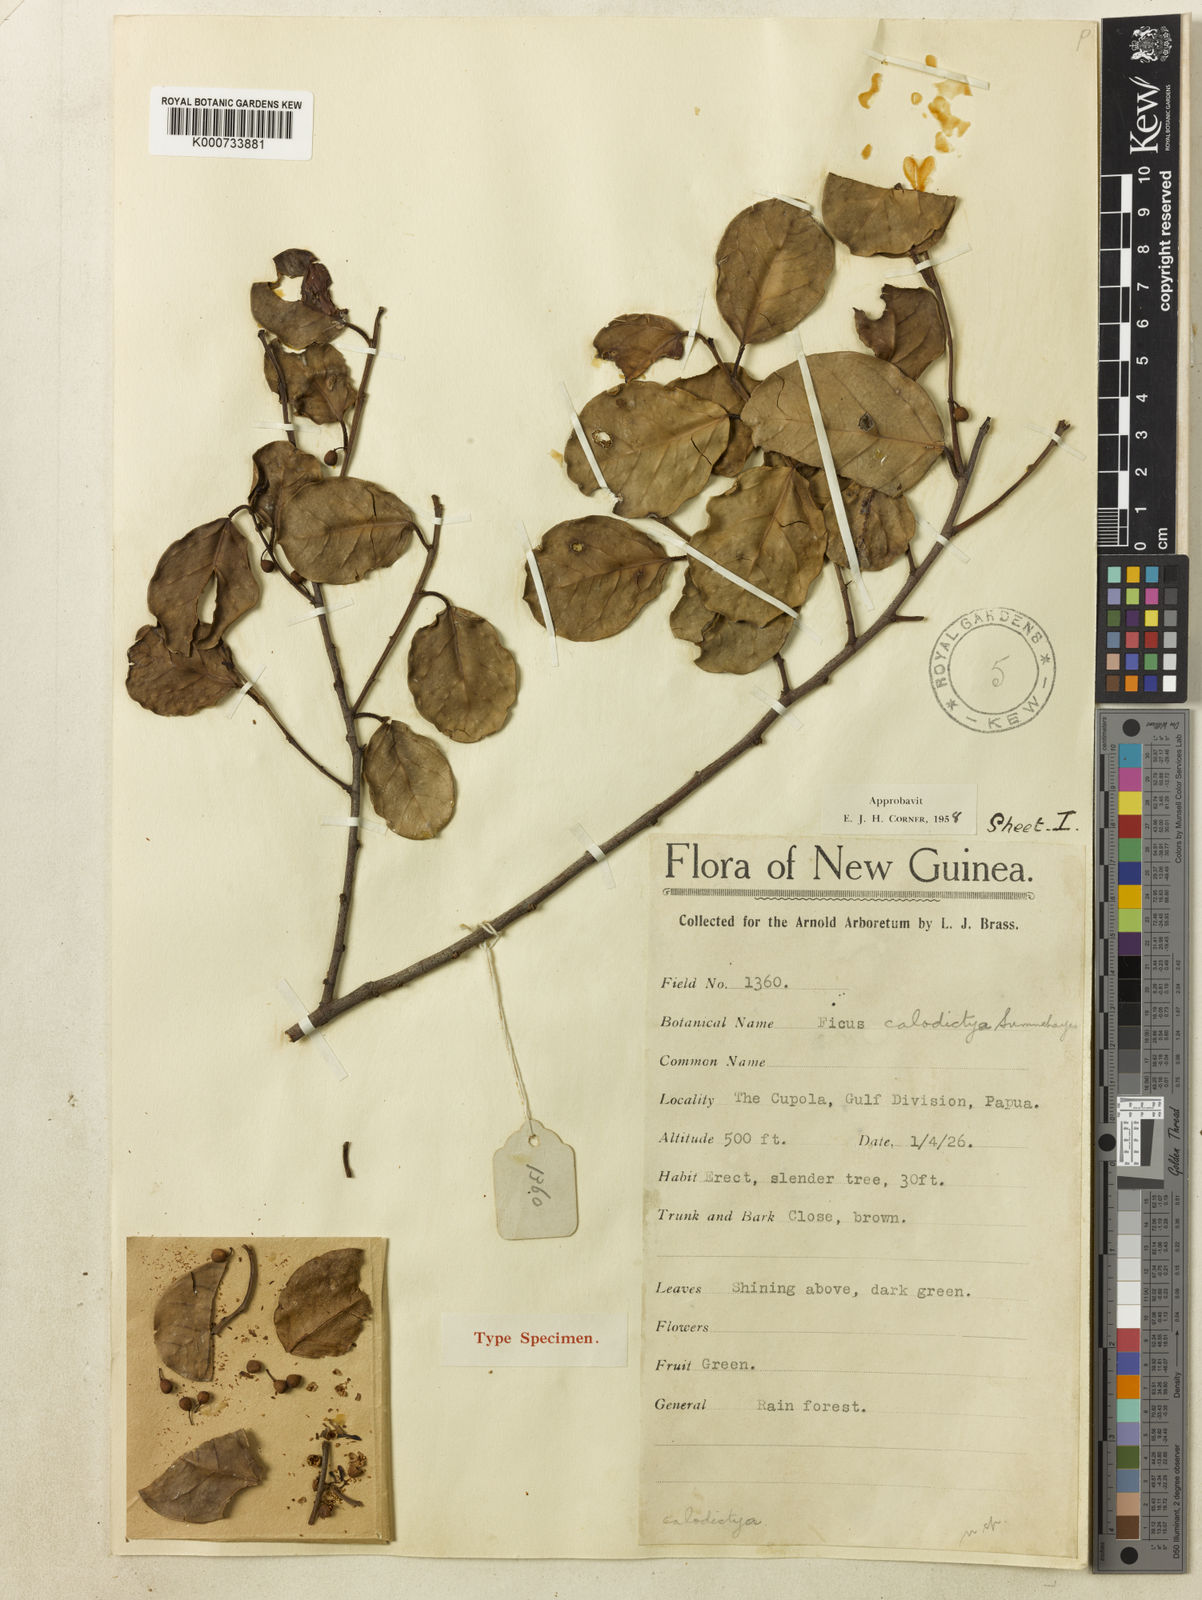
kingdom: Plantae
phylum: Tracheophyta
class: Magnoliopsida
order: Rosales
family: Moraceae
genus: Ficus
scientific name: Ficus disticha
